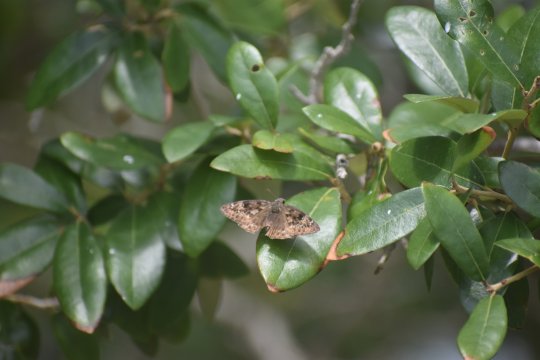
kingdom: Animalia
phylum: Arthropoda
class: Insecta
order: Lepidoptera
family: Hesperiidae
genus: Gesta
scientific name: Gesta
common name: Horace's Duskywing
